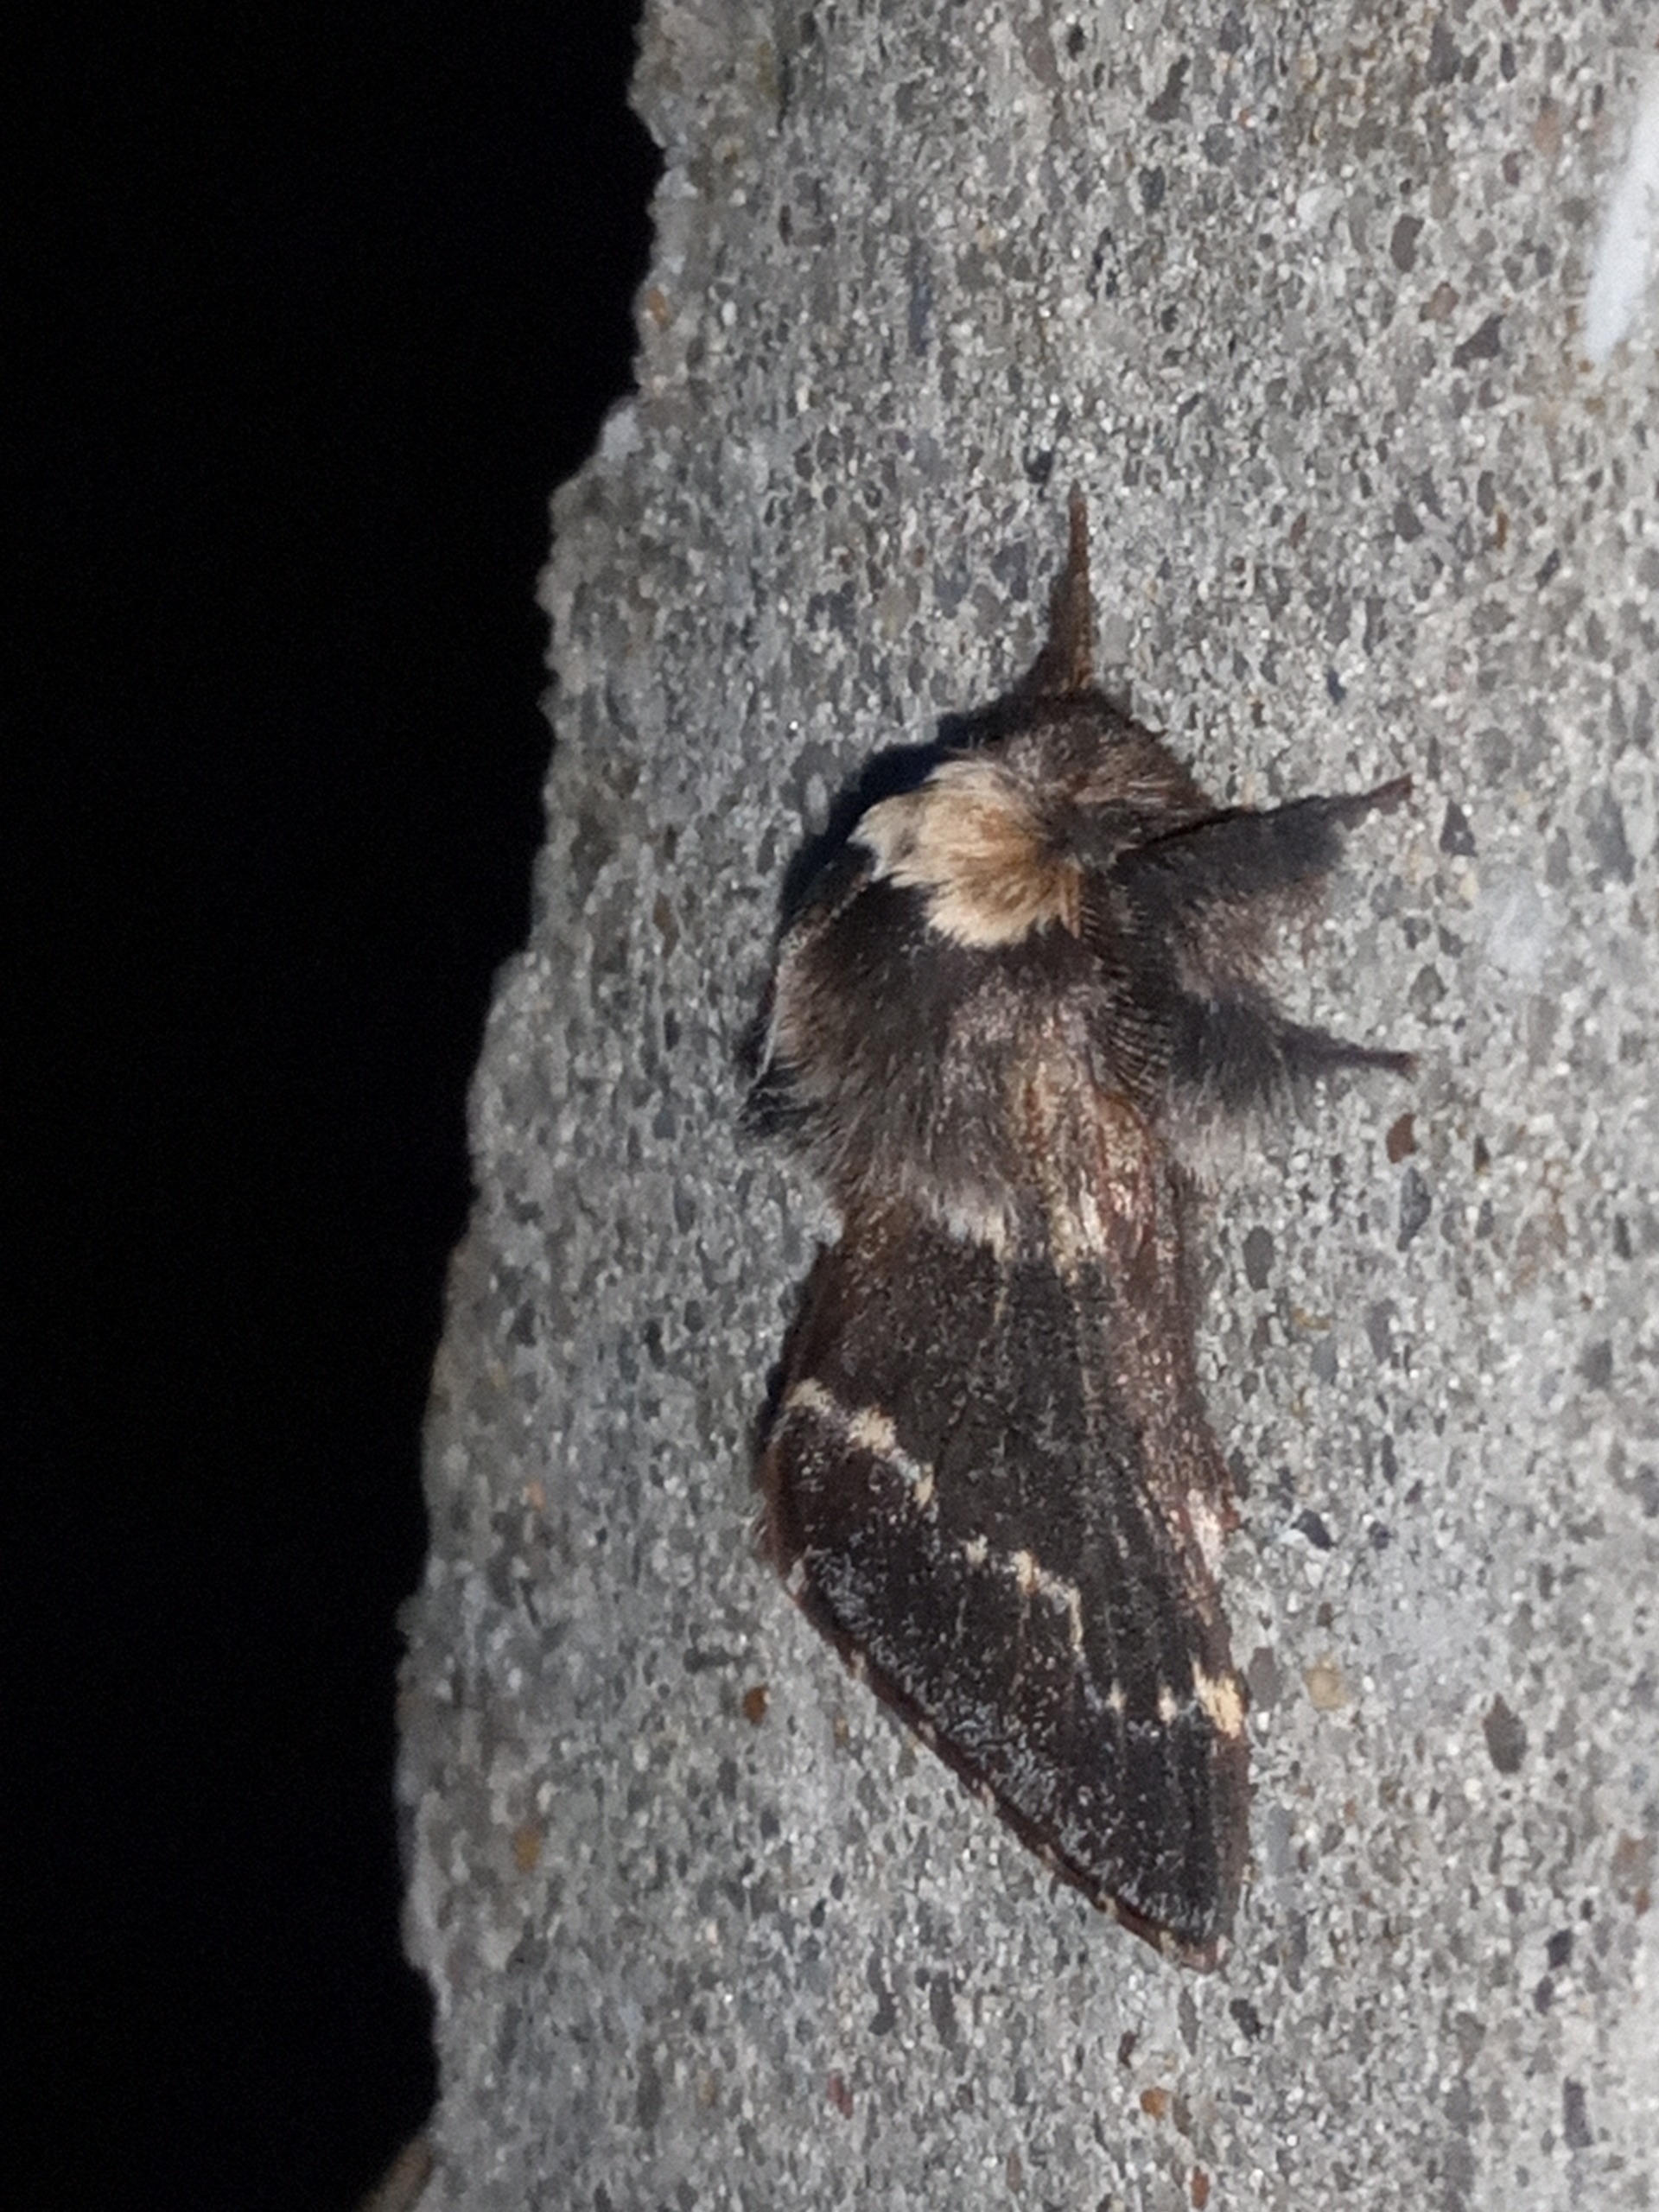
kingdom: Animalia
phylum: Arthropoda
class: Insecta
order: Lepidoptera
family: Lasiocampidae
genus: Poecilocampa
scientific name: Poecilocampa populi
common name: Poppelspinder
